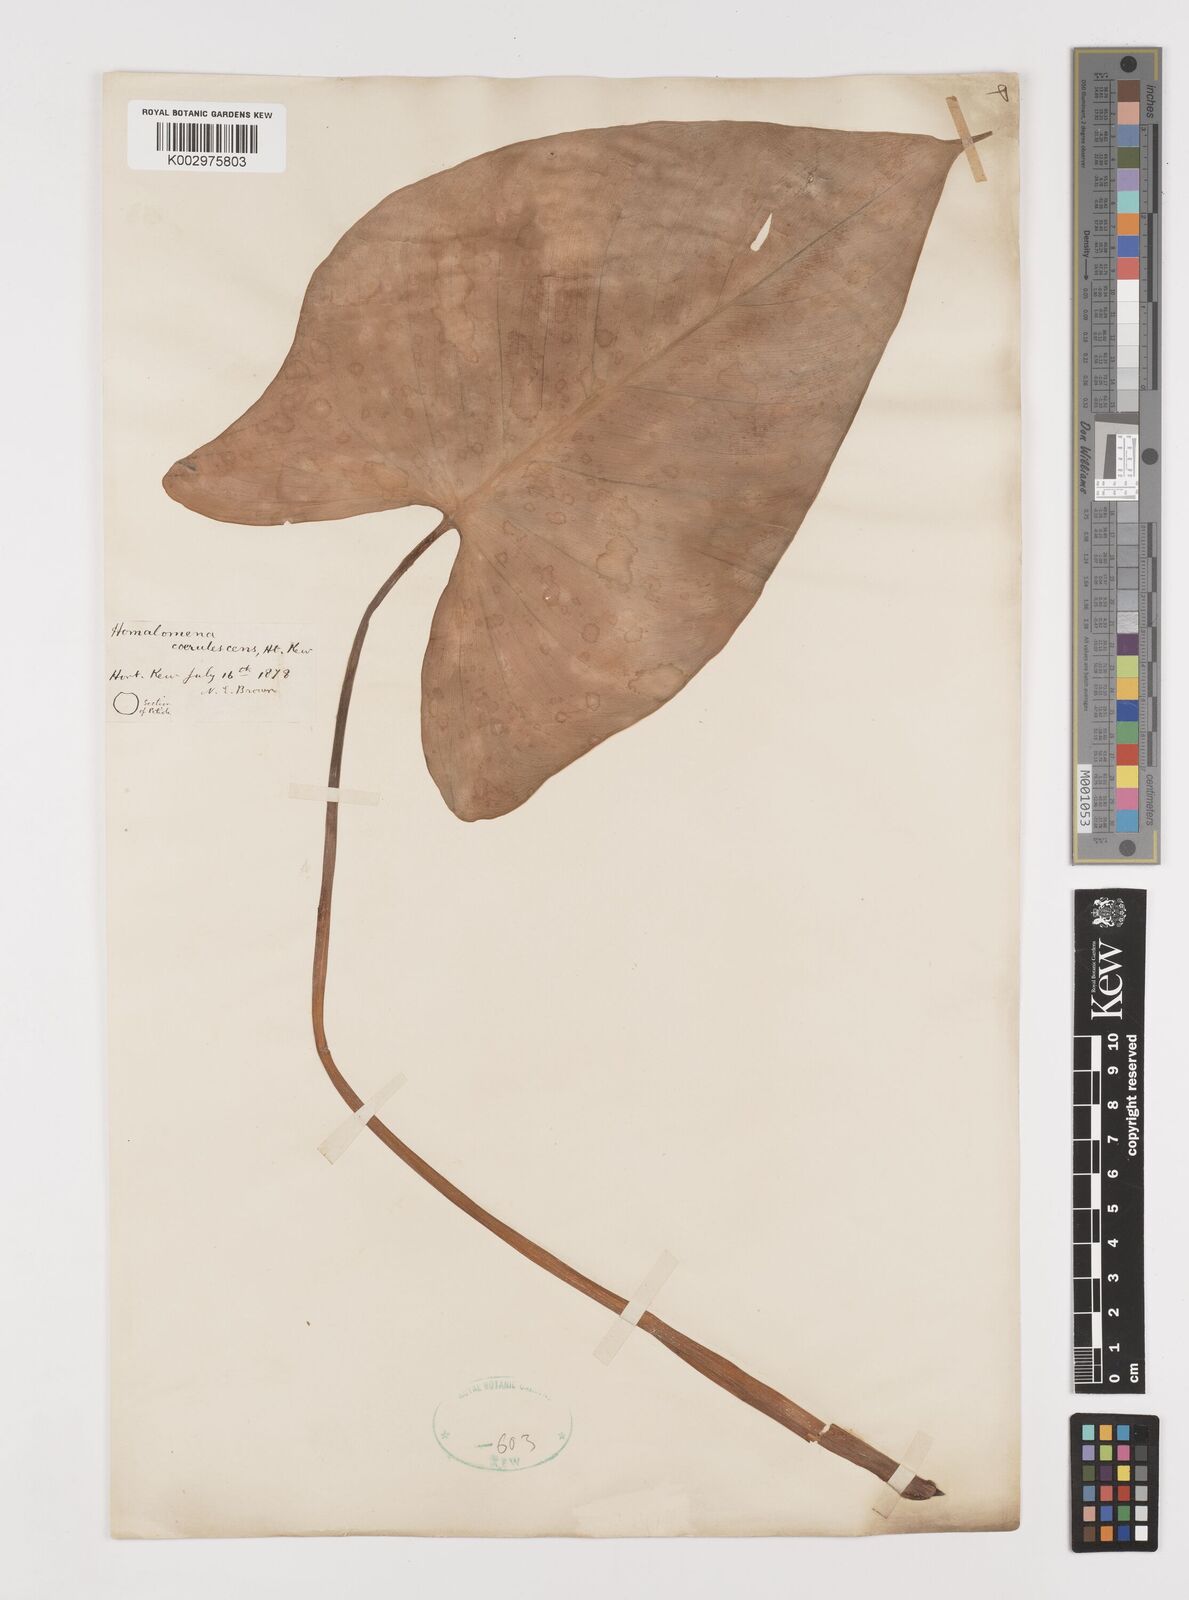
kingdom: Plantae
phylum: Tracheophyta
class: Liliopsida
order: Alismatales
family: Araceae
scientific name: Araceae
